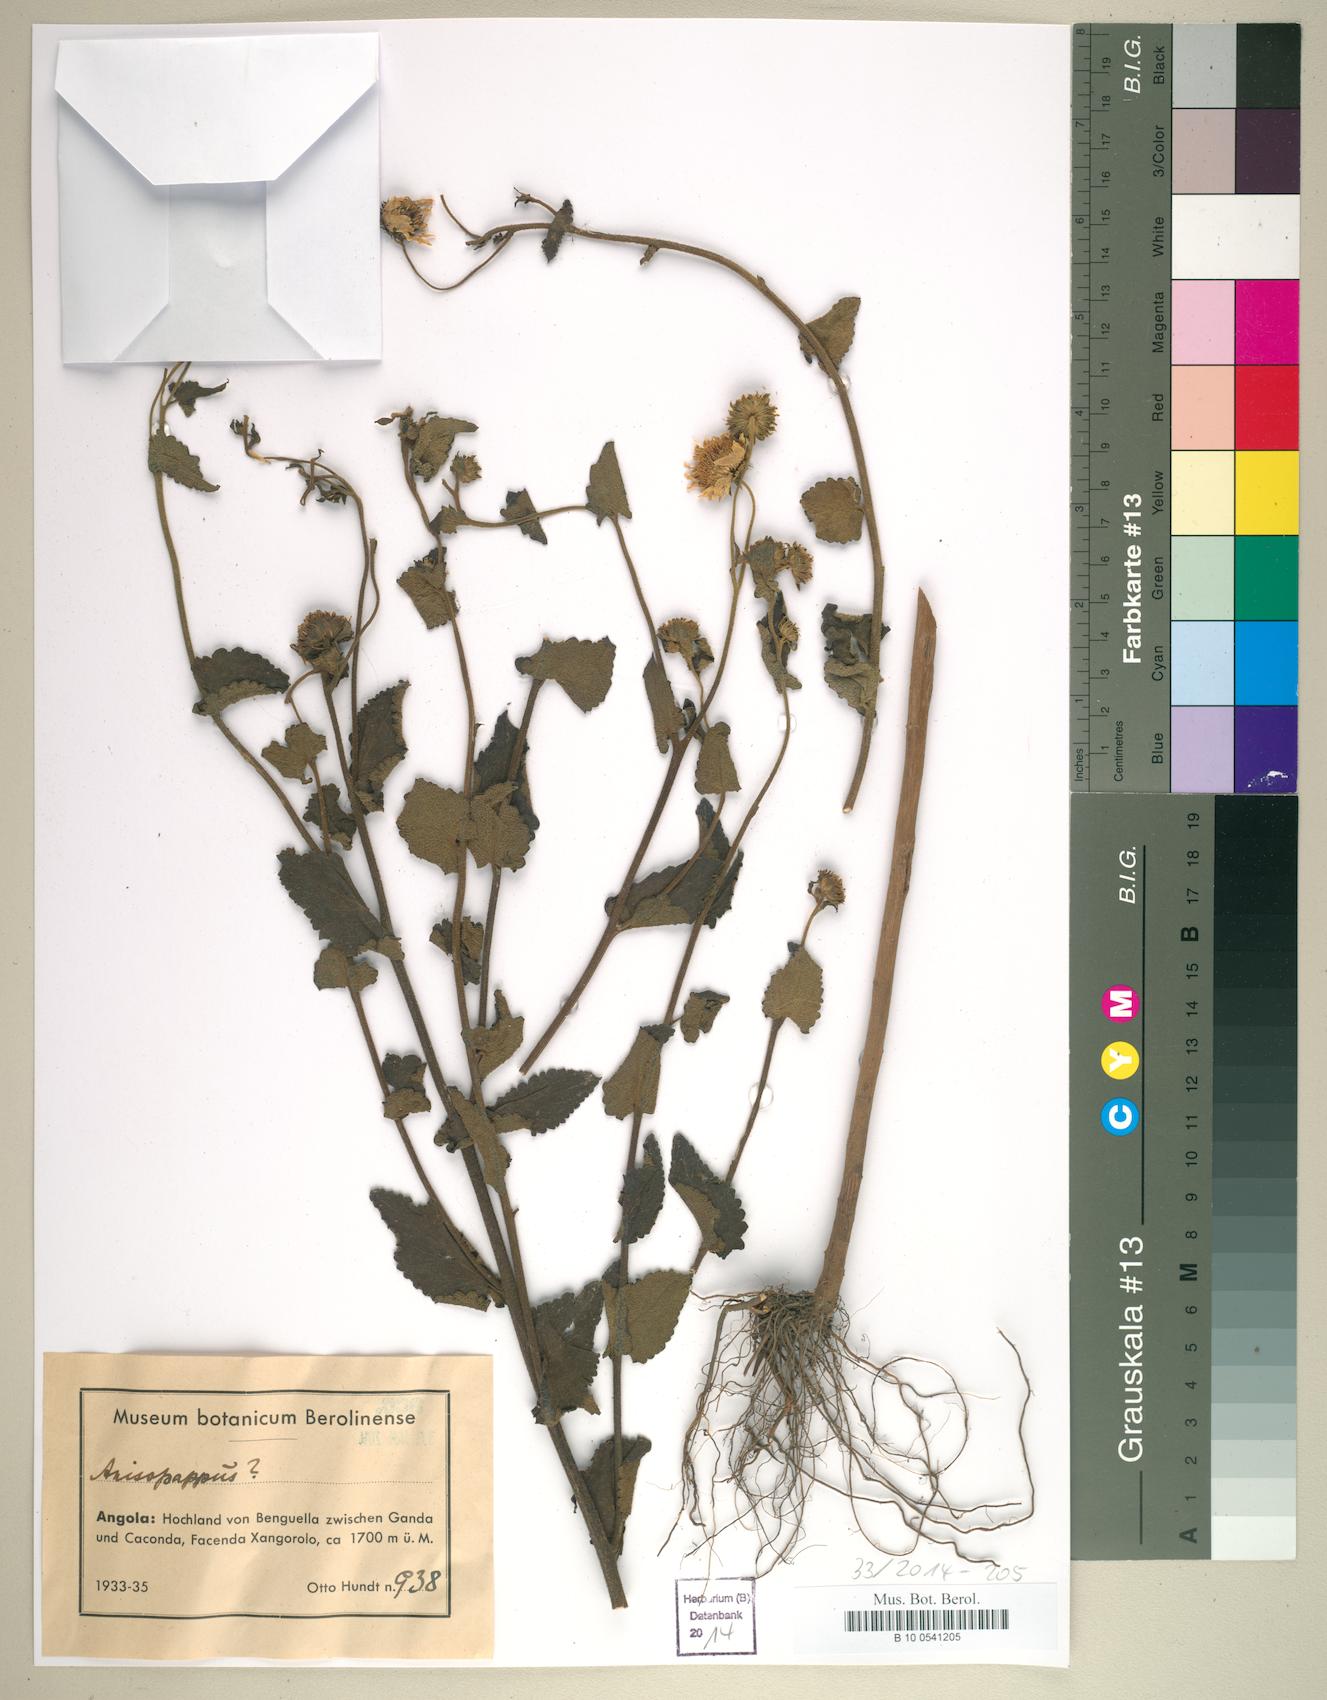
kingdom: Plantae
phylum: Tracheophyta
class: Magnoliopsida
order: Asterales
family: Asteraceae
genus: Anisopappus
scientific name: Anisopappus
